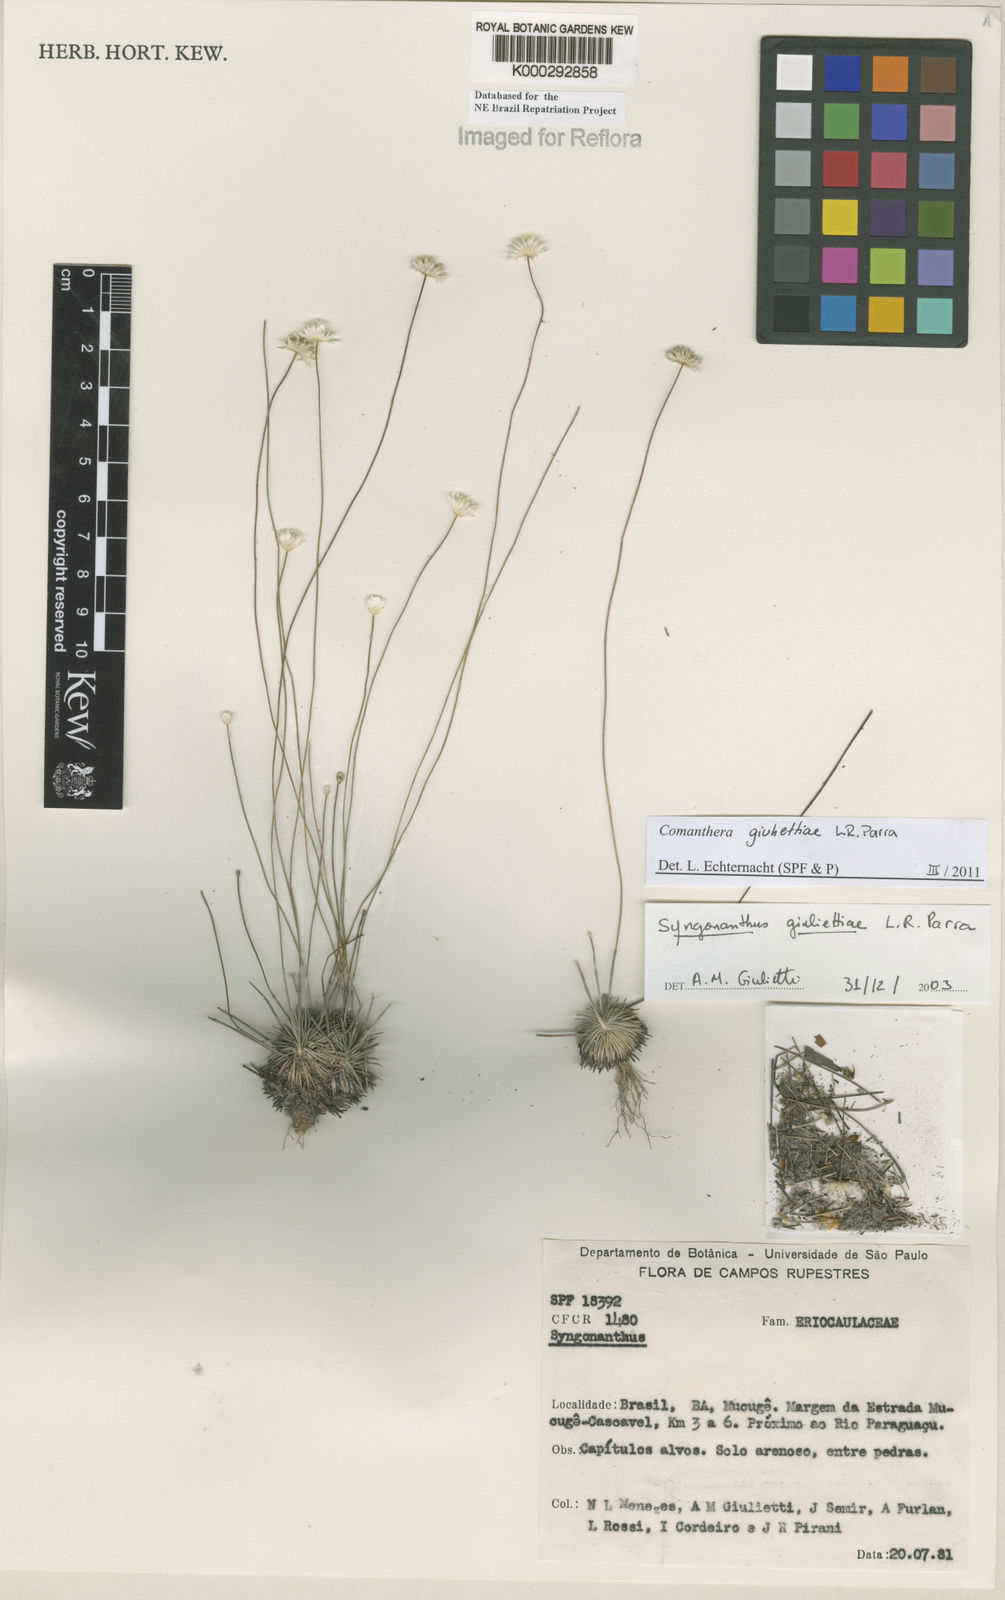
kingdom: Plantae
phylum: Tracheophyta
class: Liliopsida
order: Poales
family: Eriocaulaceae
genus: Syngonanthus
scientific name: Syngonanthus
